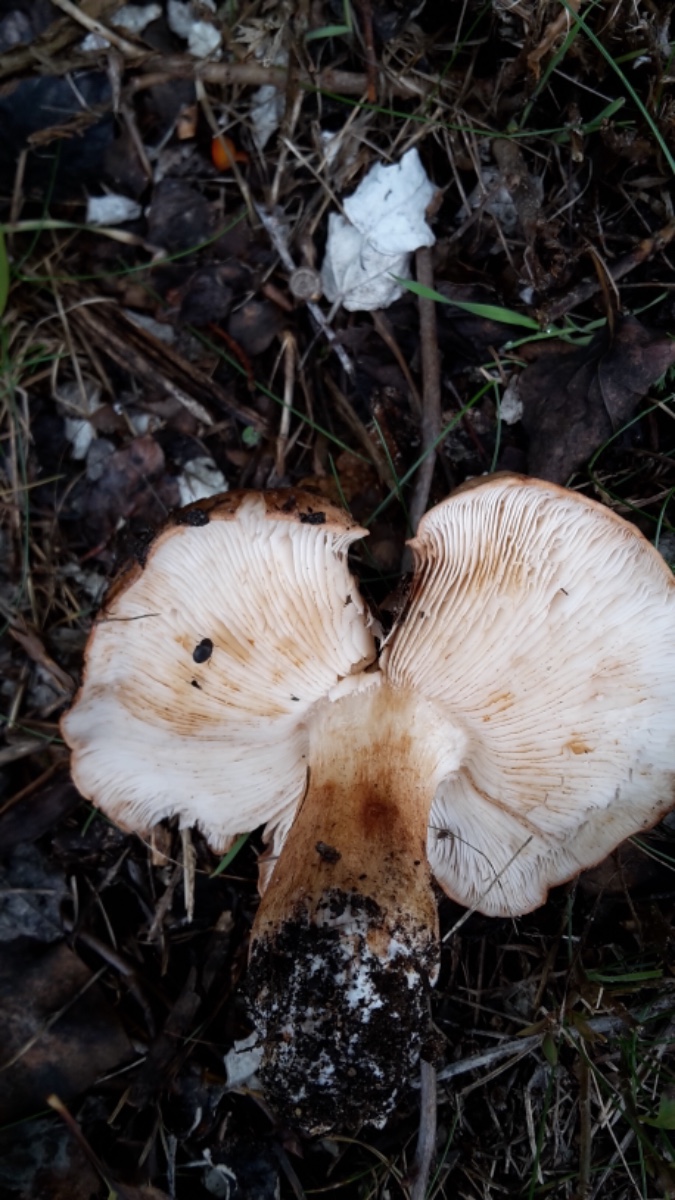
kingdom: Fungi
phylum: Basidiomycota
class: Agaricomycetes
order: Agaricales
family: Tricholomataceae
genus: Tricholoma
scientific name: Tricholoma populinum
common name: poppel-ridderhat
